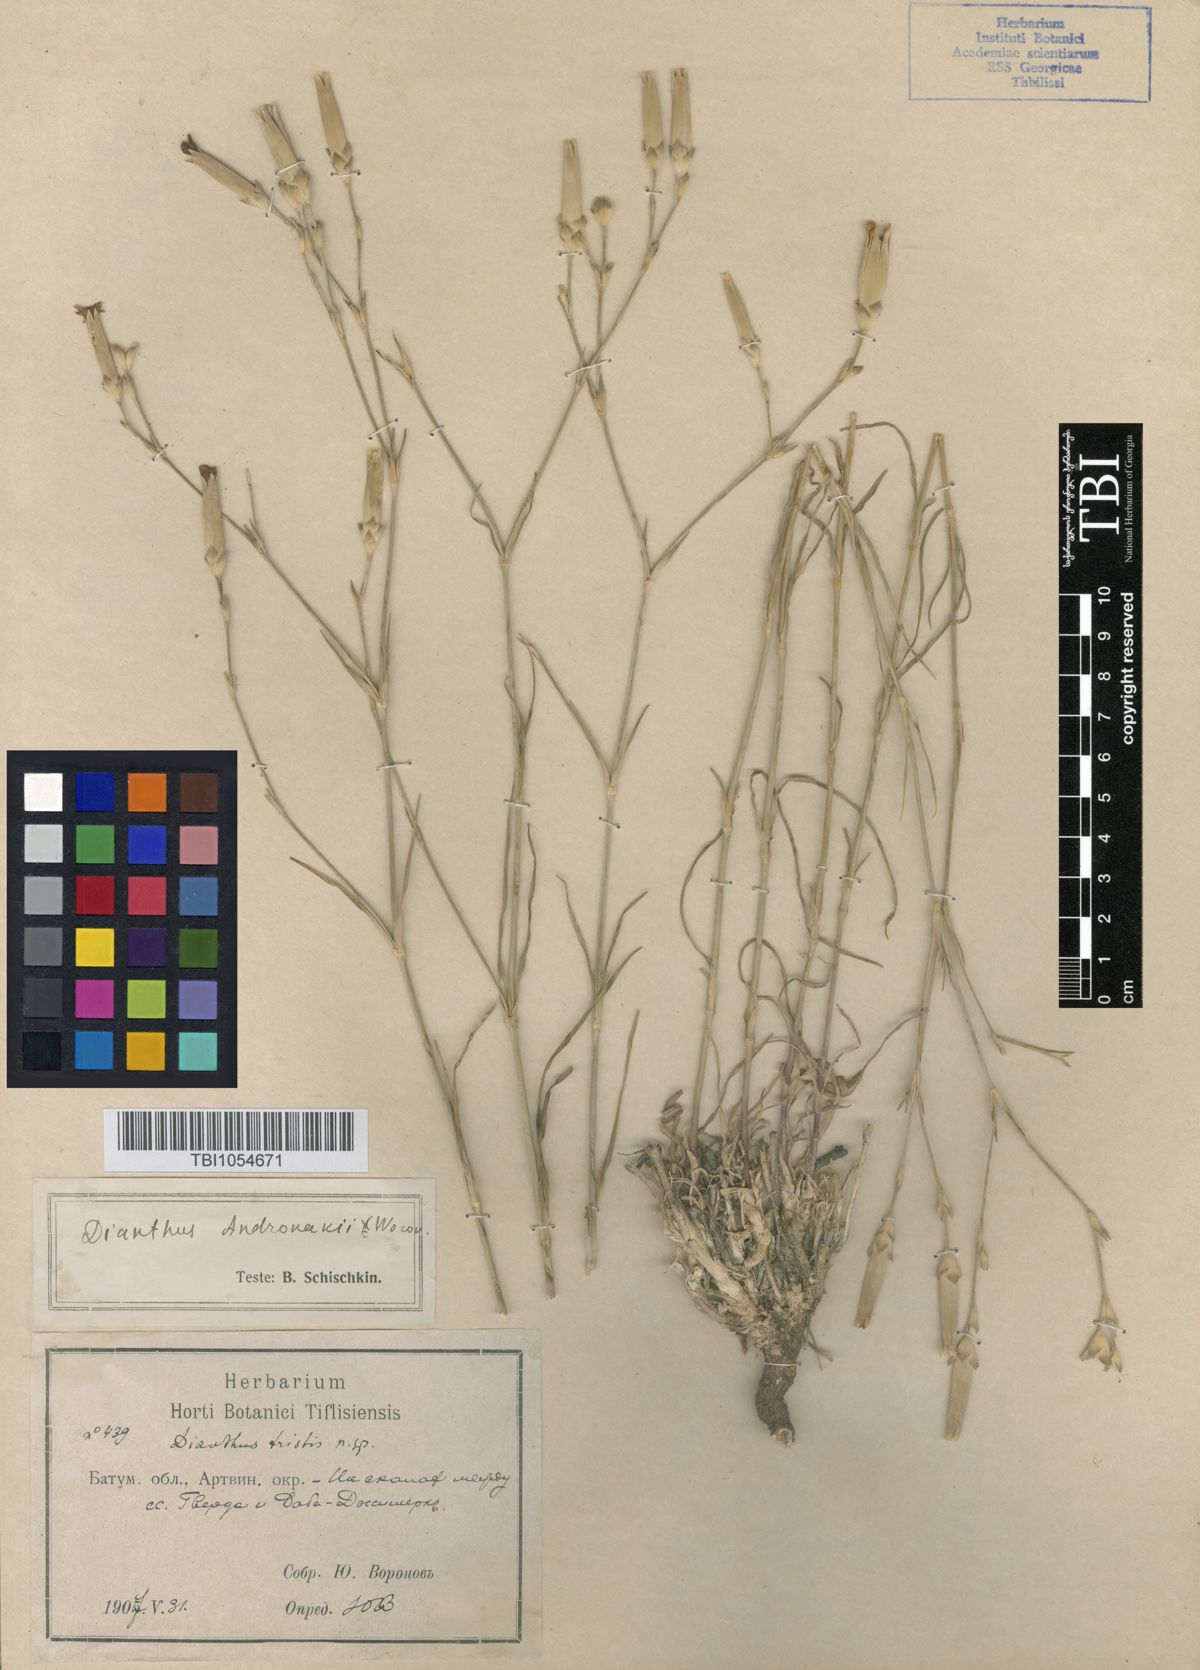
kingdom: Plantae
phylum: Tracheophyta
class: Magnoliopsida
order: Caryophyllales
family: Caryophyllaceae
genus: Dianthus
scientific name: Dianthus andronakii
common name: Andronaki's pink
